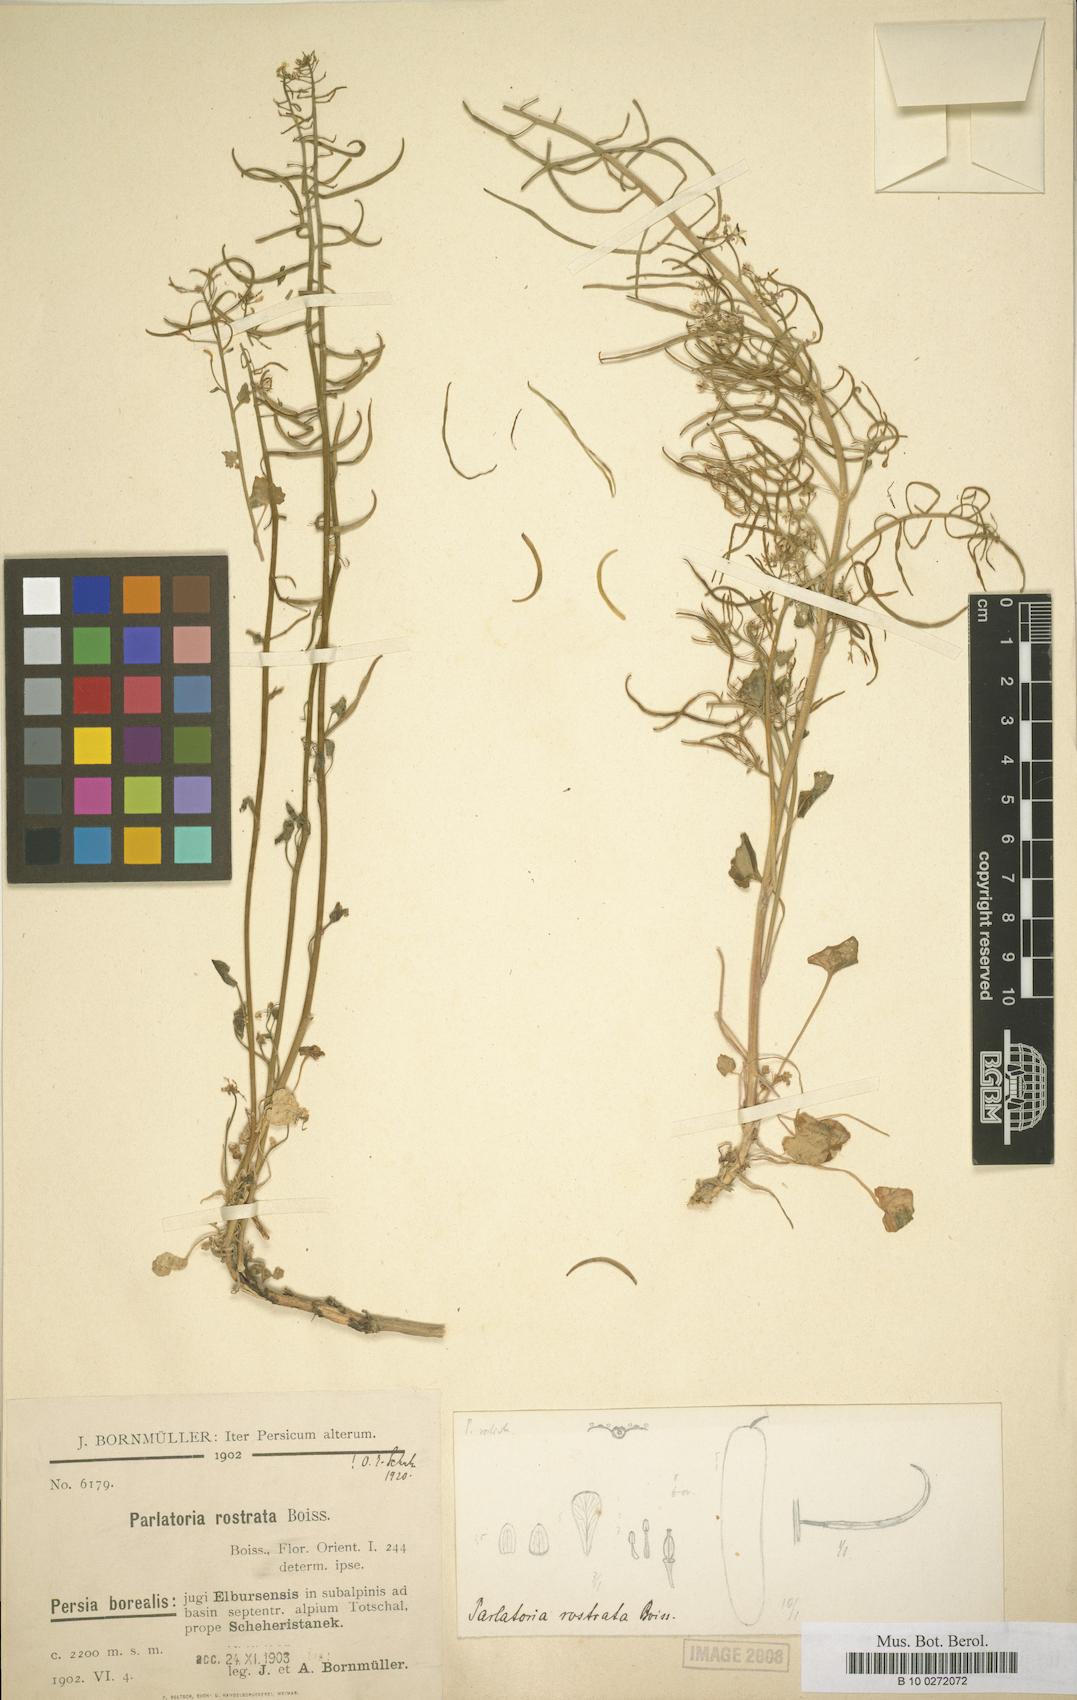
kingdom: Plantae
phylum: Tracheophyta
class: Magnoliopsida
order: Brassicales
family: Brassicaceae
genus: Lysakia
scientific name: Lysakia rostrata
